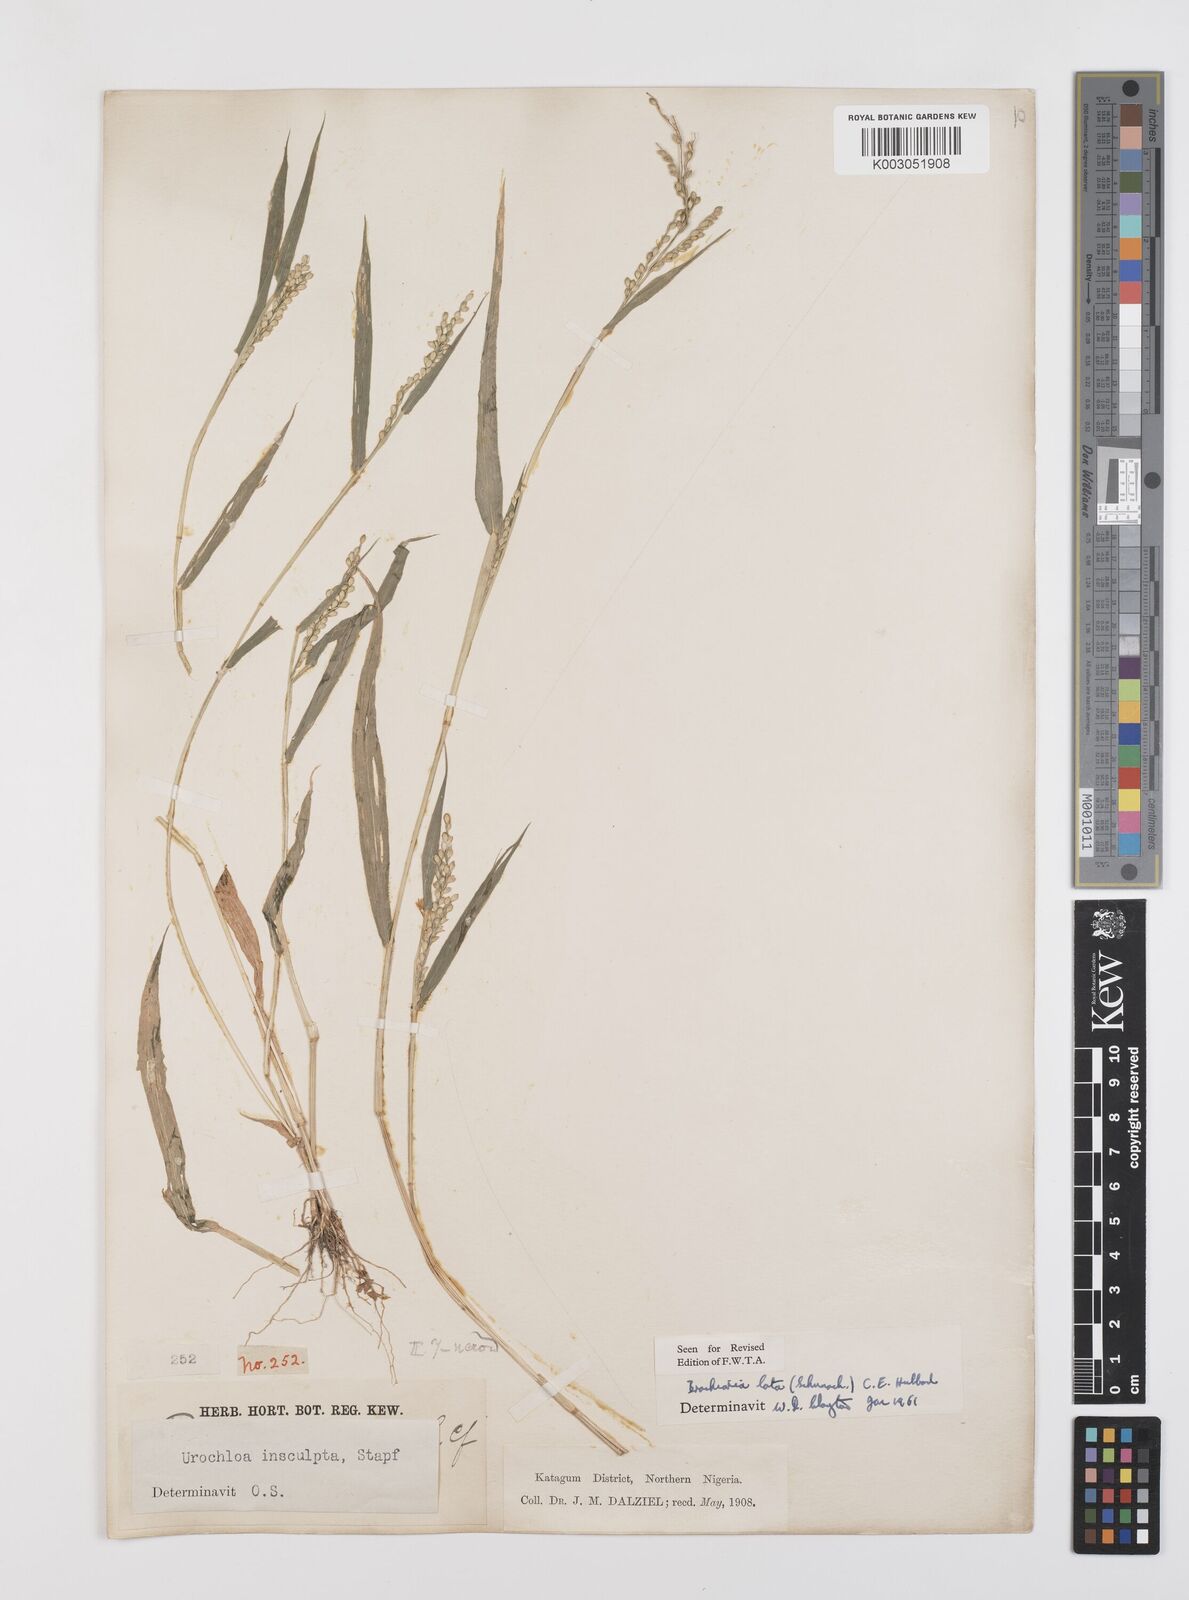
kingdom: Plantae
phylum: Tracheophyta
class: Liliopsida
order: Poales
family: Poaceae
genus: Urochloa
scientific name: Urochloa lata
